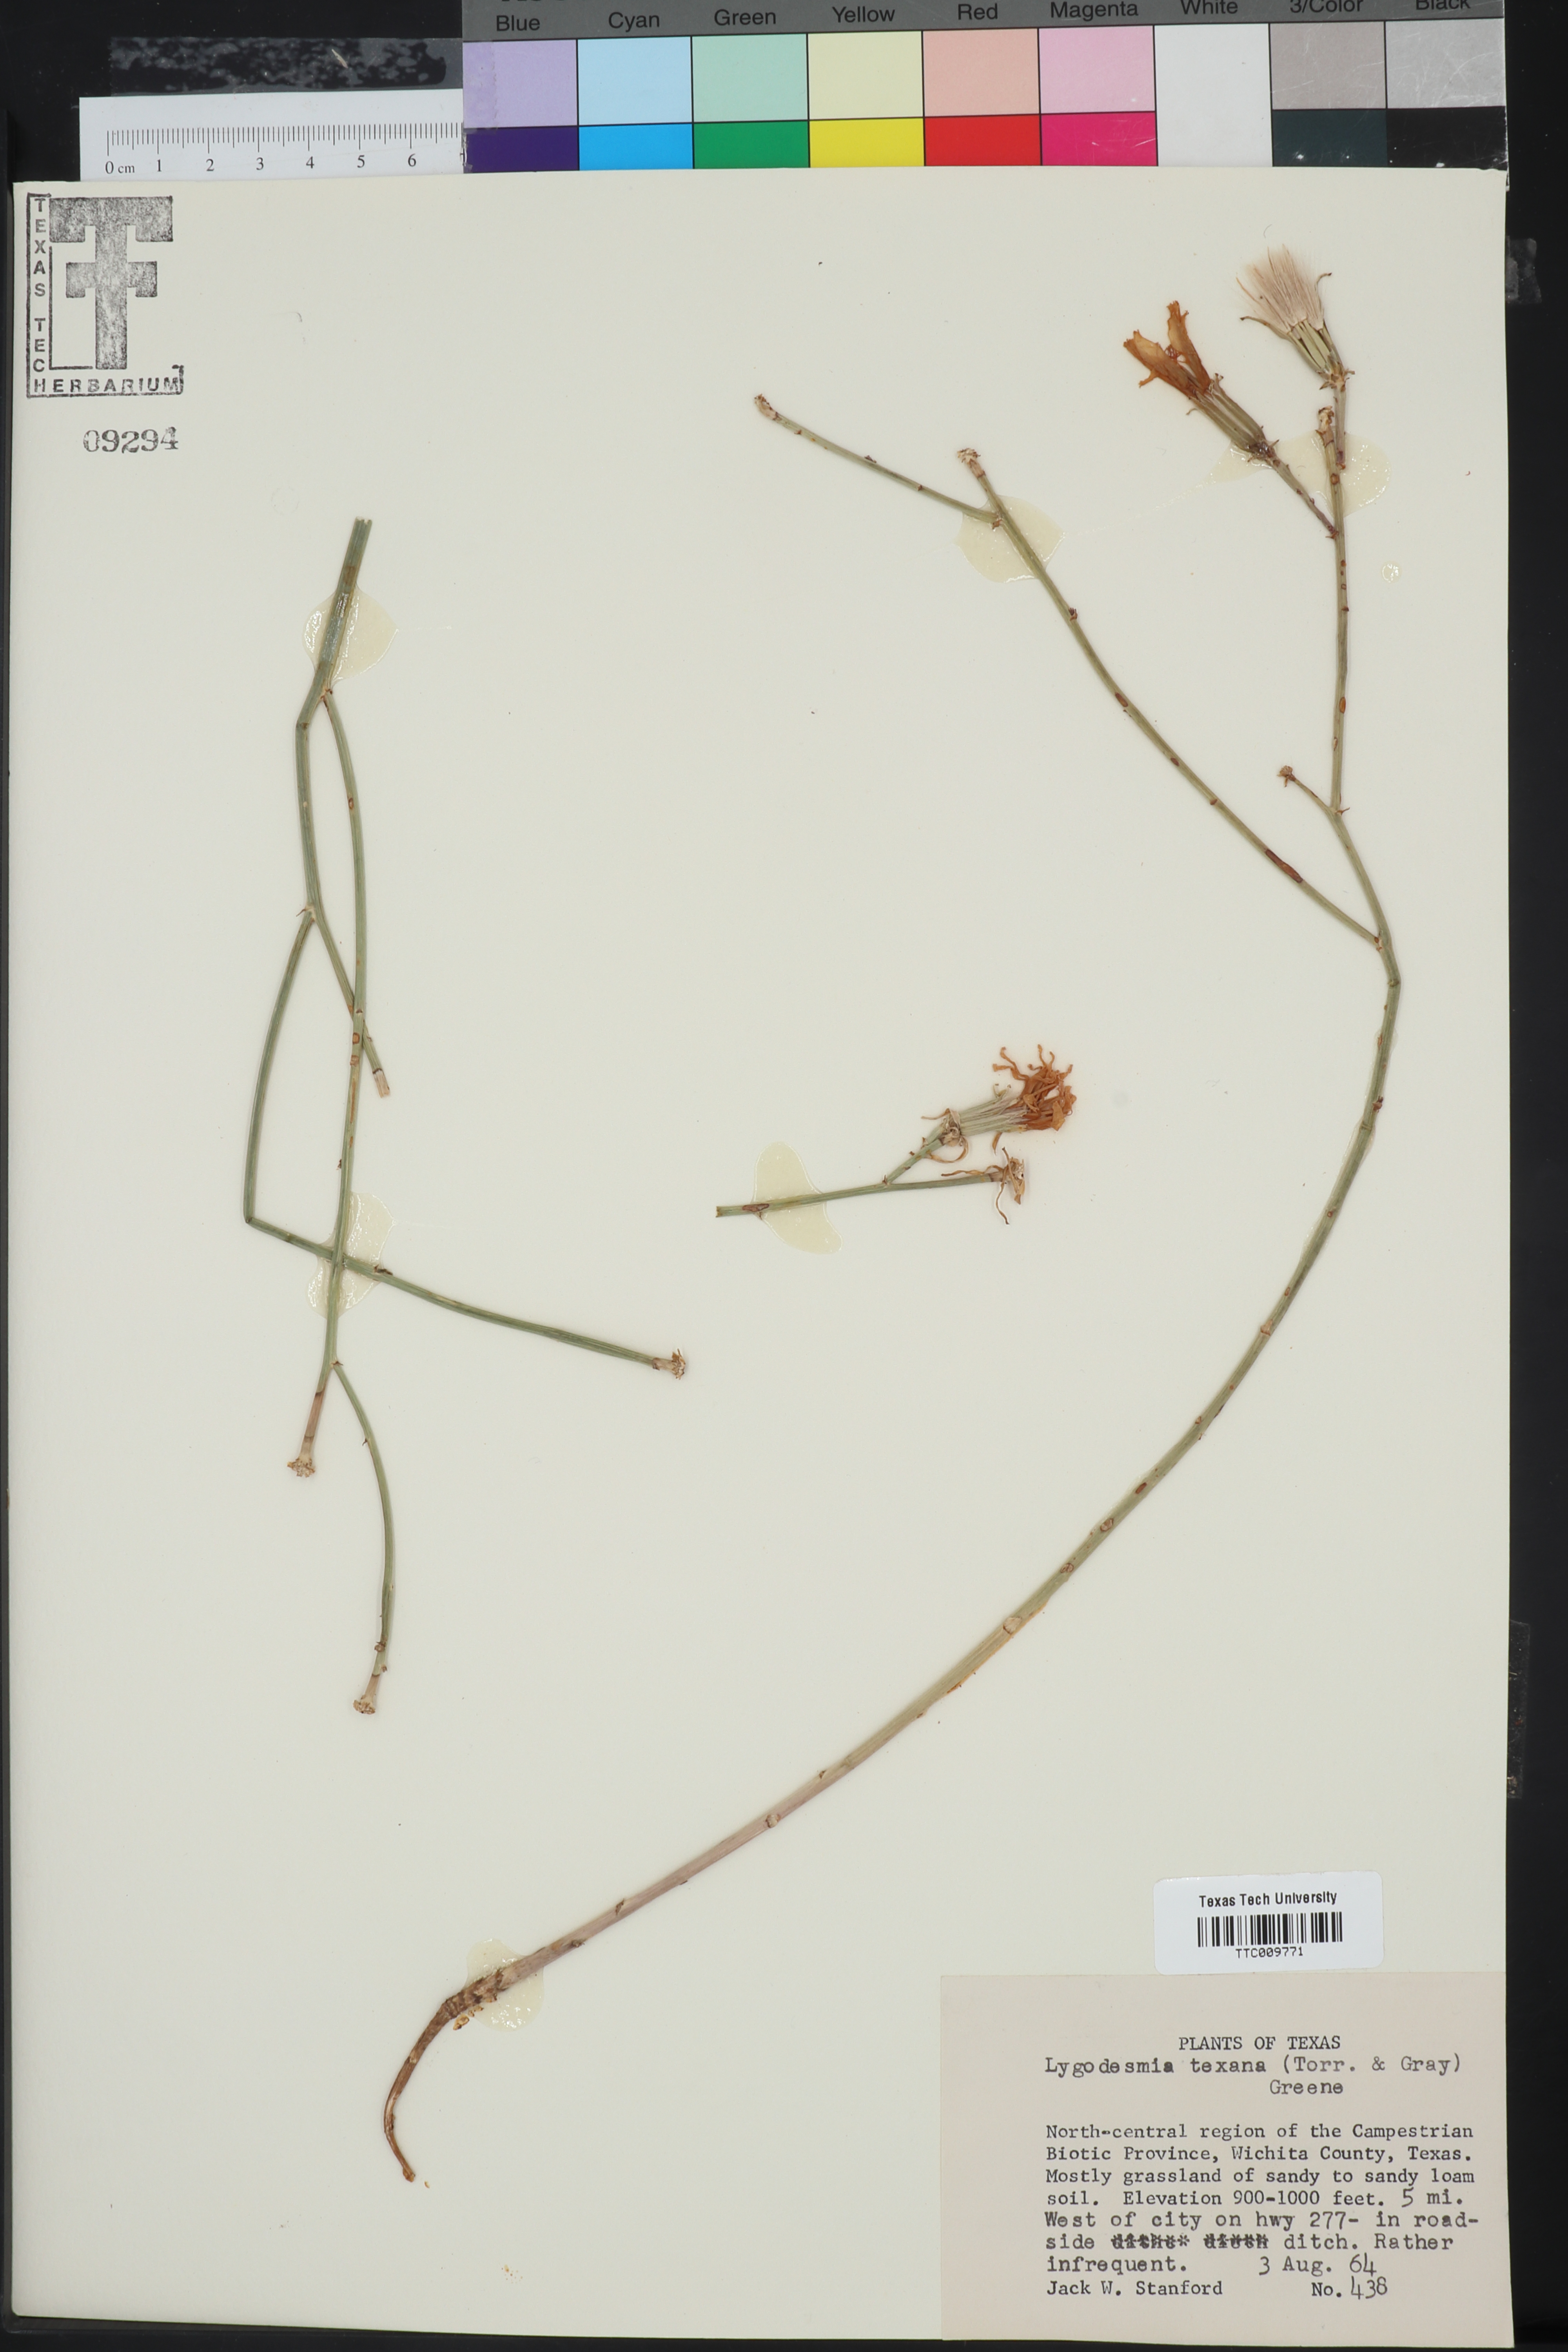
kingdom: Plantae
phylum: Tracheophyta
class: Magnoliopsida
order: Asterales
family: Asteraceae
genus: Lygodesmia
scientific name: Lygodesmia texana
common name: Texas skeleton-plant
